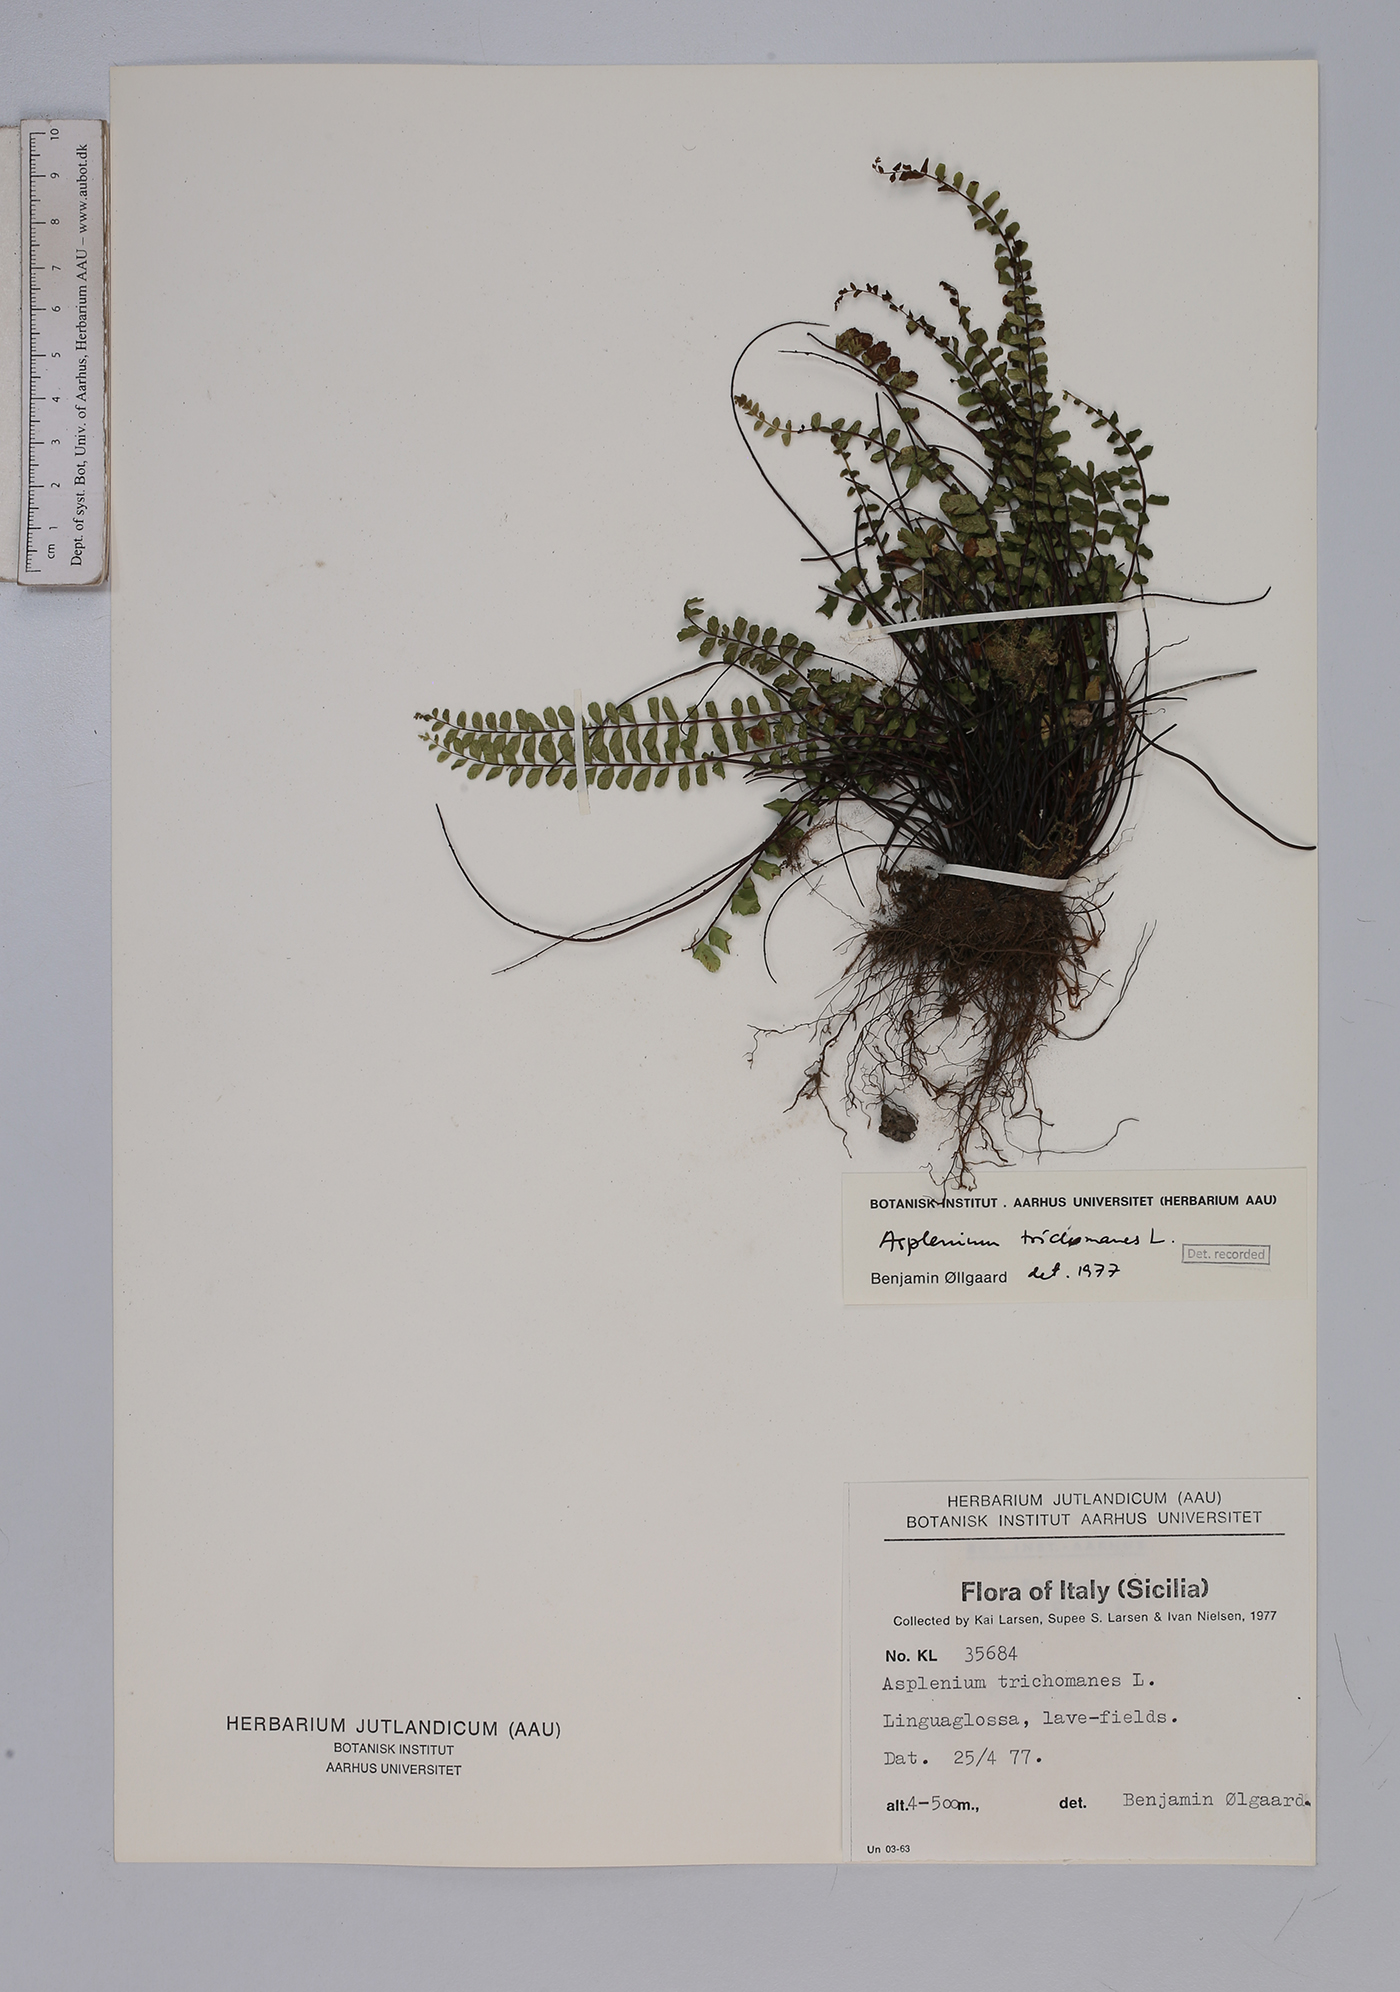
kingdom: Plantae
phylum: Tracheophyta
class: Polypodiopsida
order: Polypodiales
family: Aspleniaceae
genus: Asplenium
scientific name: Asplenium trichomanes
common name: Maidenhair spleenwort
